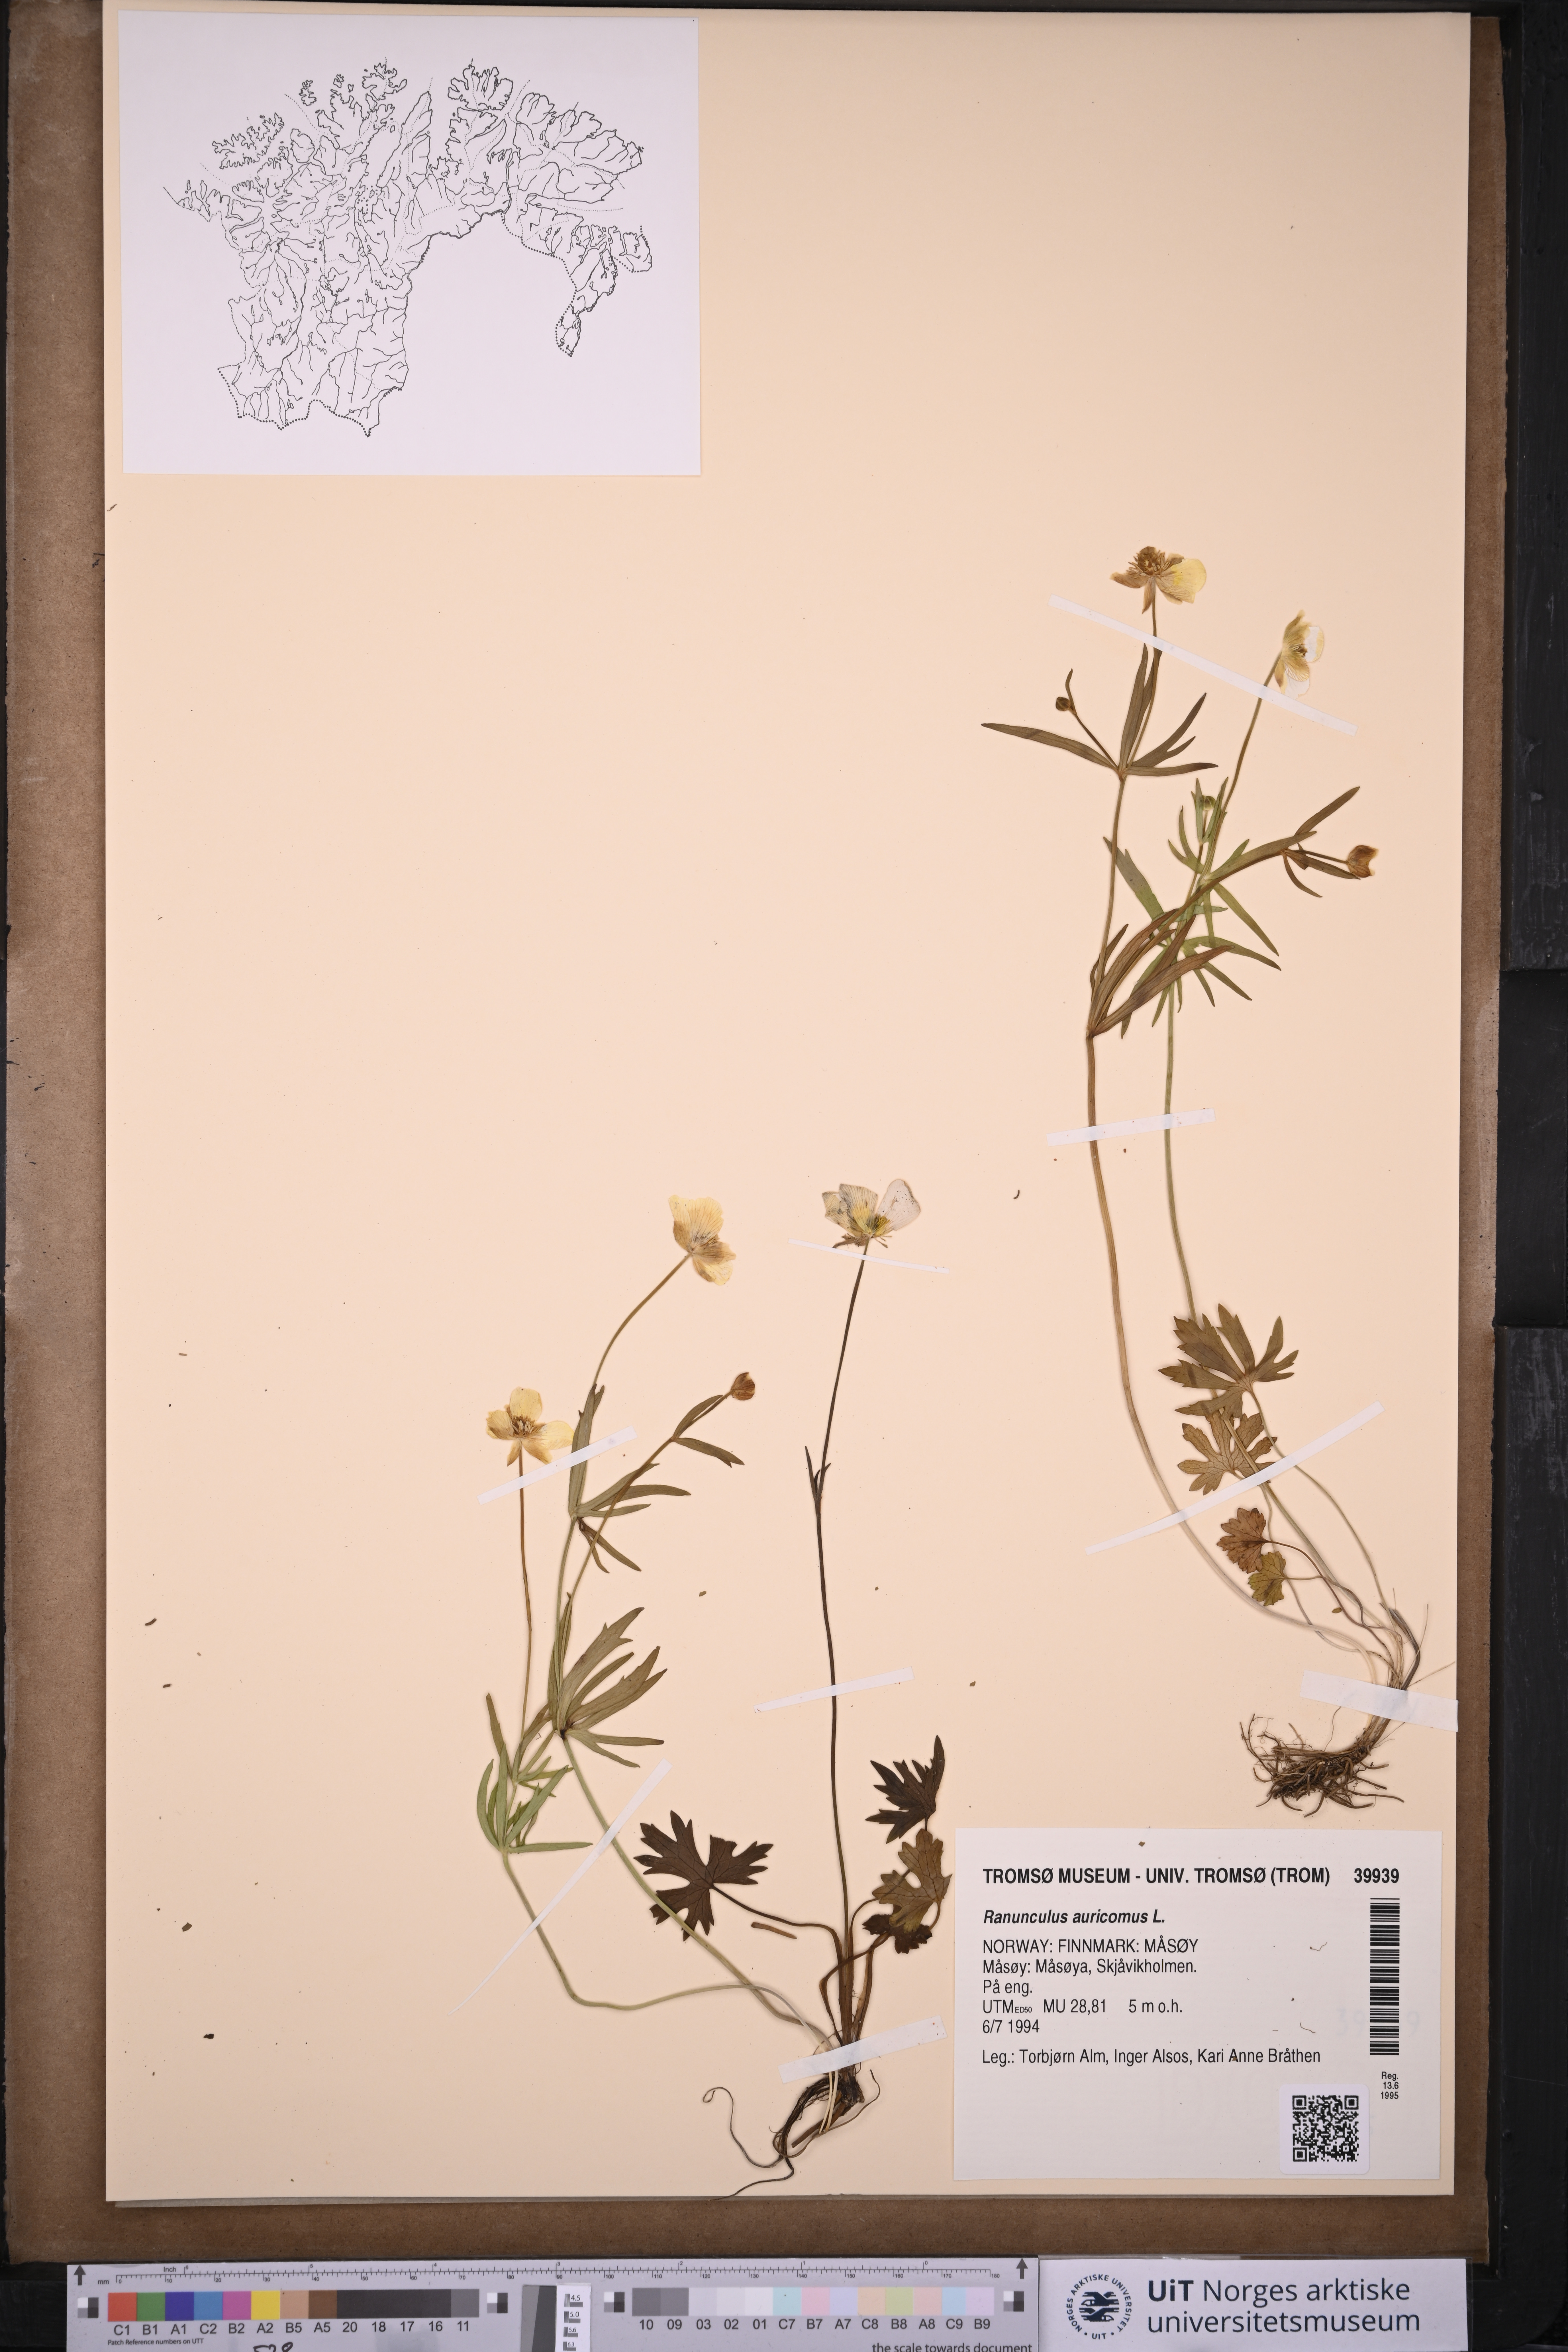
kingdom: Plantae
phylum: Tracheophyta
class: Magnoliopsida
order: Ranunculales
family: Ranunculaceae
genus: Ranunculus
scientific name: Ranunculus auricomus
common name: Goldilocks buttercup
